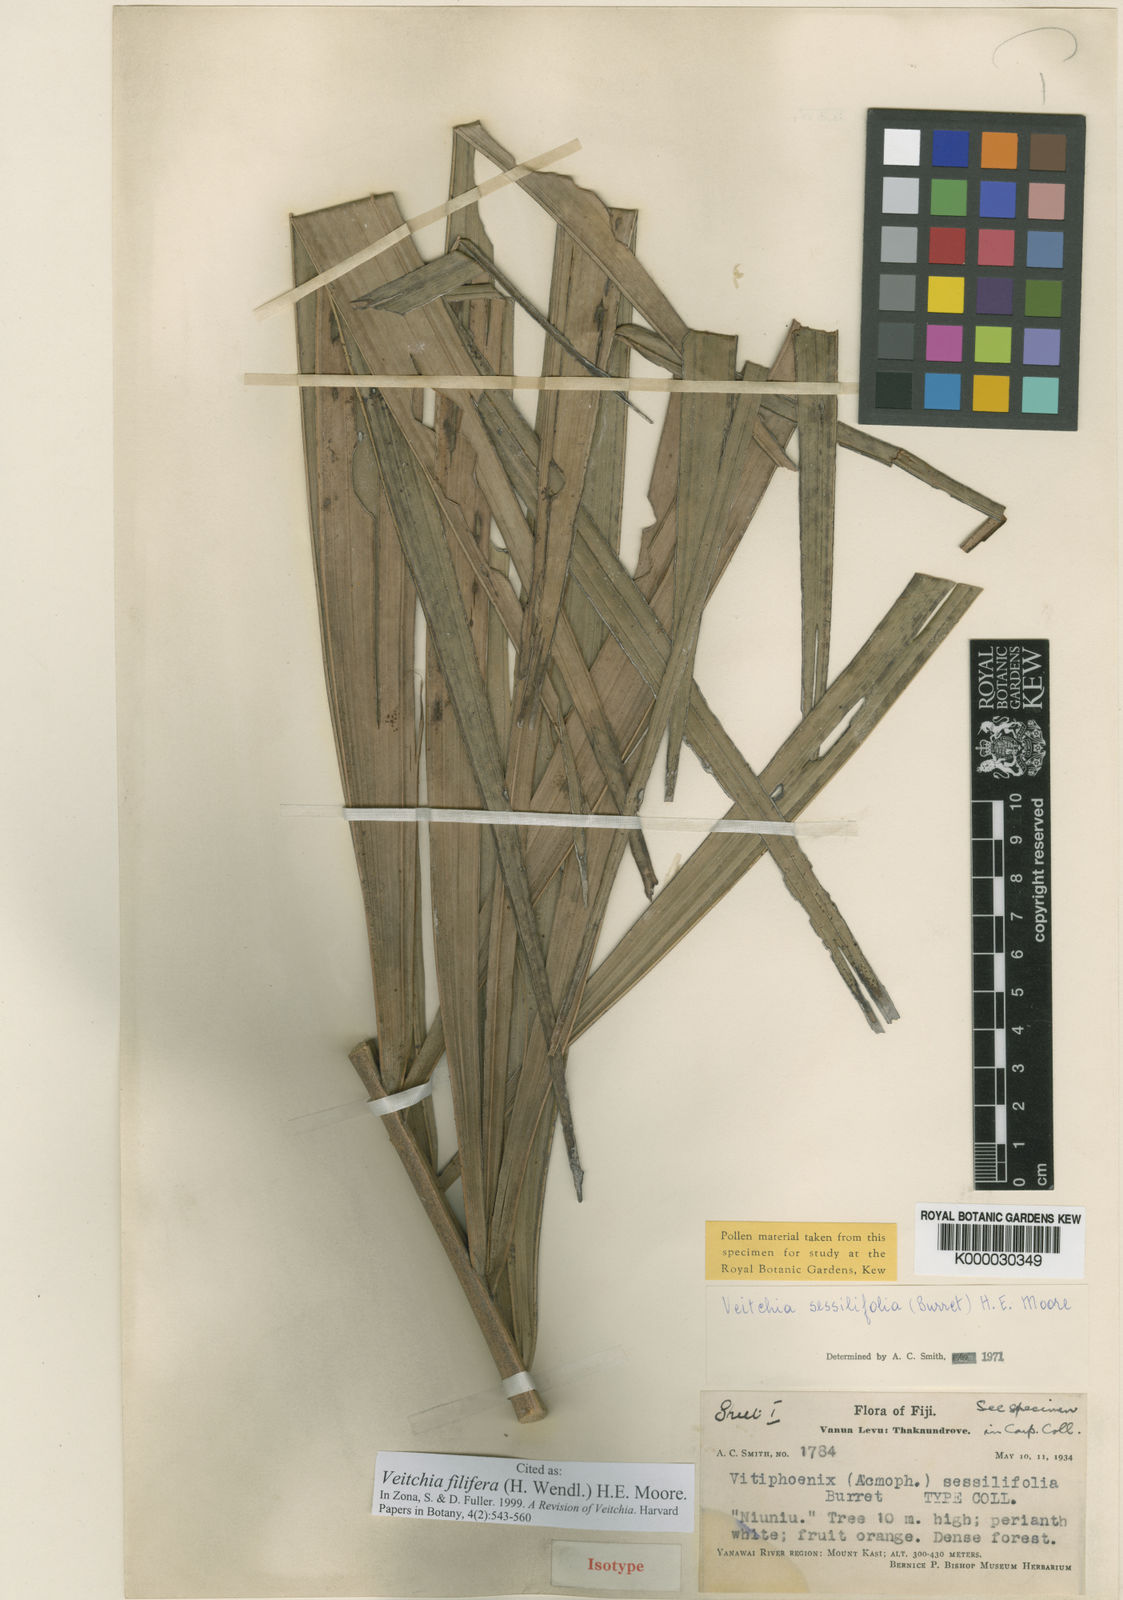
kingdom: Plantae
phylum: Tracheophyta
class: Liliopsida
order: Arecales
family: Arecaceae
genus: Veitchia
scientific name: Veitchia filifera
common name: Cagicake
